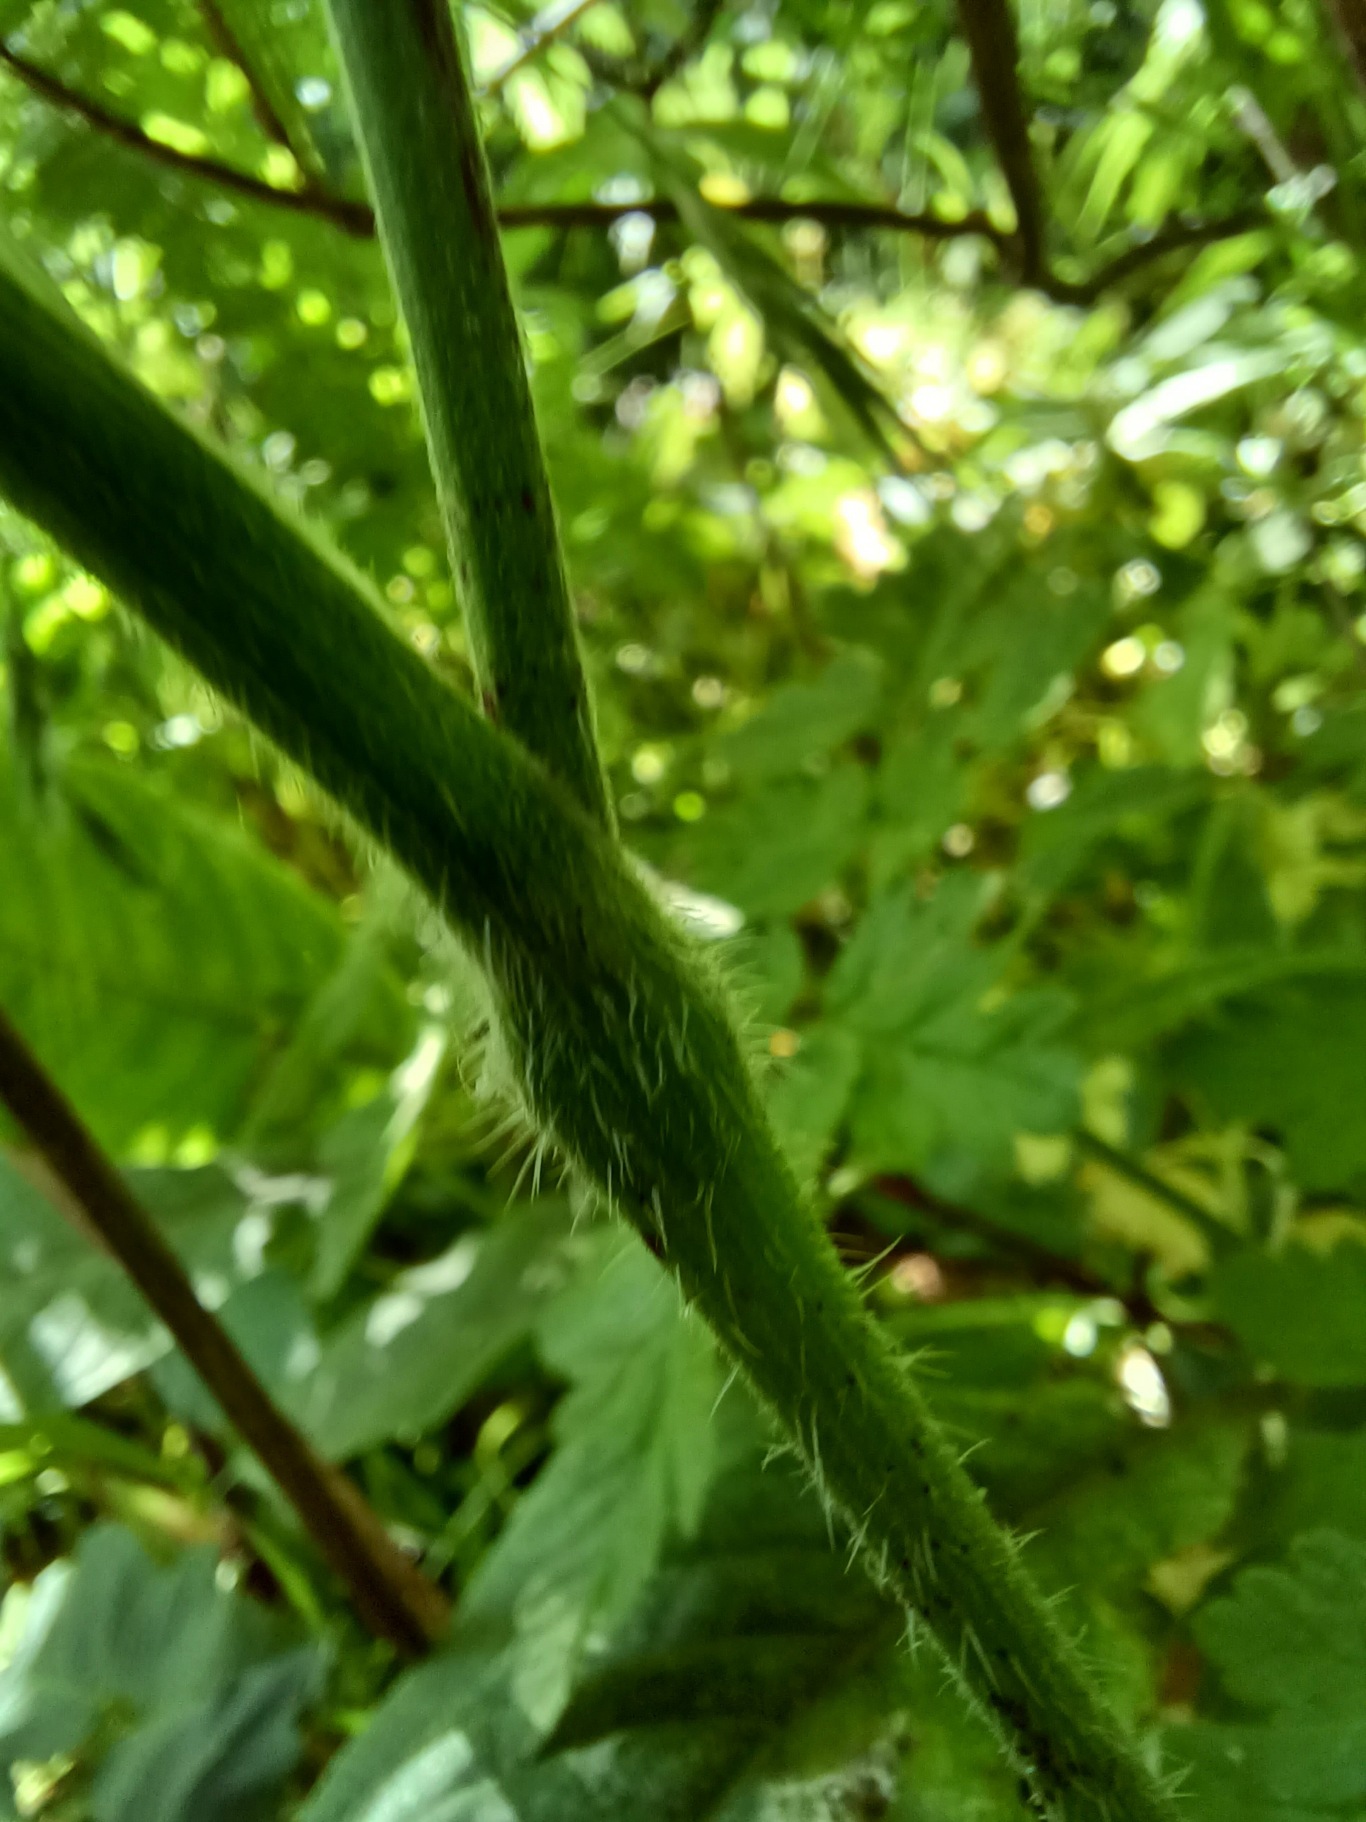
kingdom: Plantae
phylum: Tracheophyta
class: Magnoliopsida
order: Apiales
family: Apiaceae
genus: Chaerophyllum
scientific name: Chaerophyllum temulum
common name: Almindelig hulsvøb
